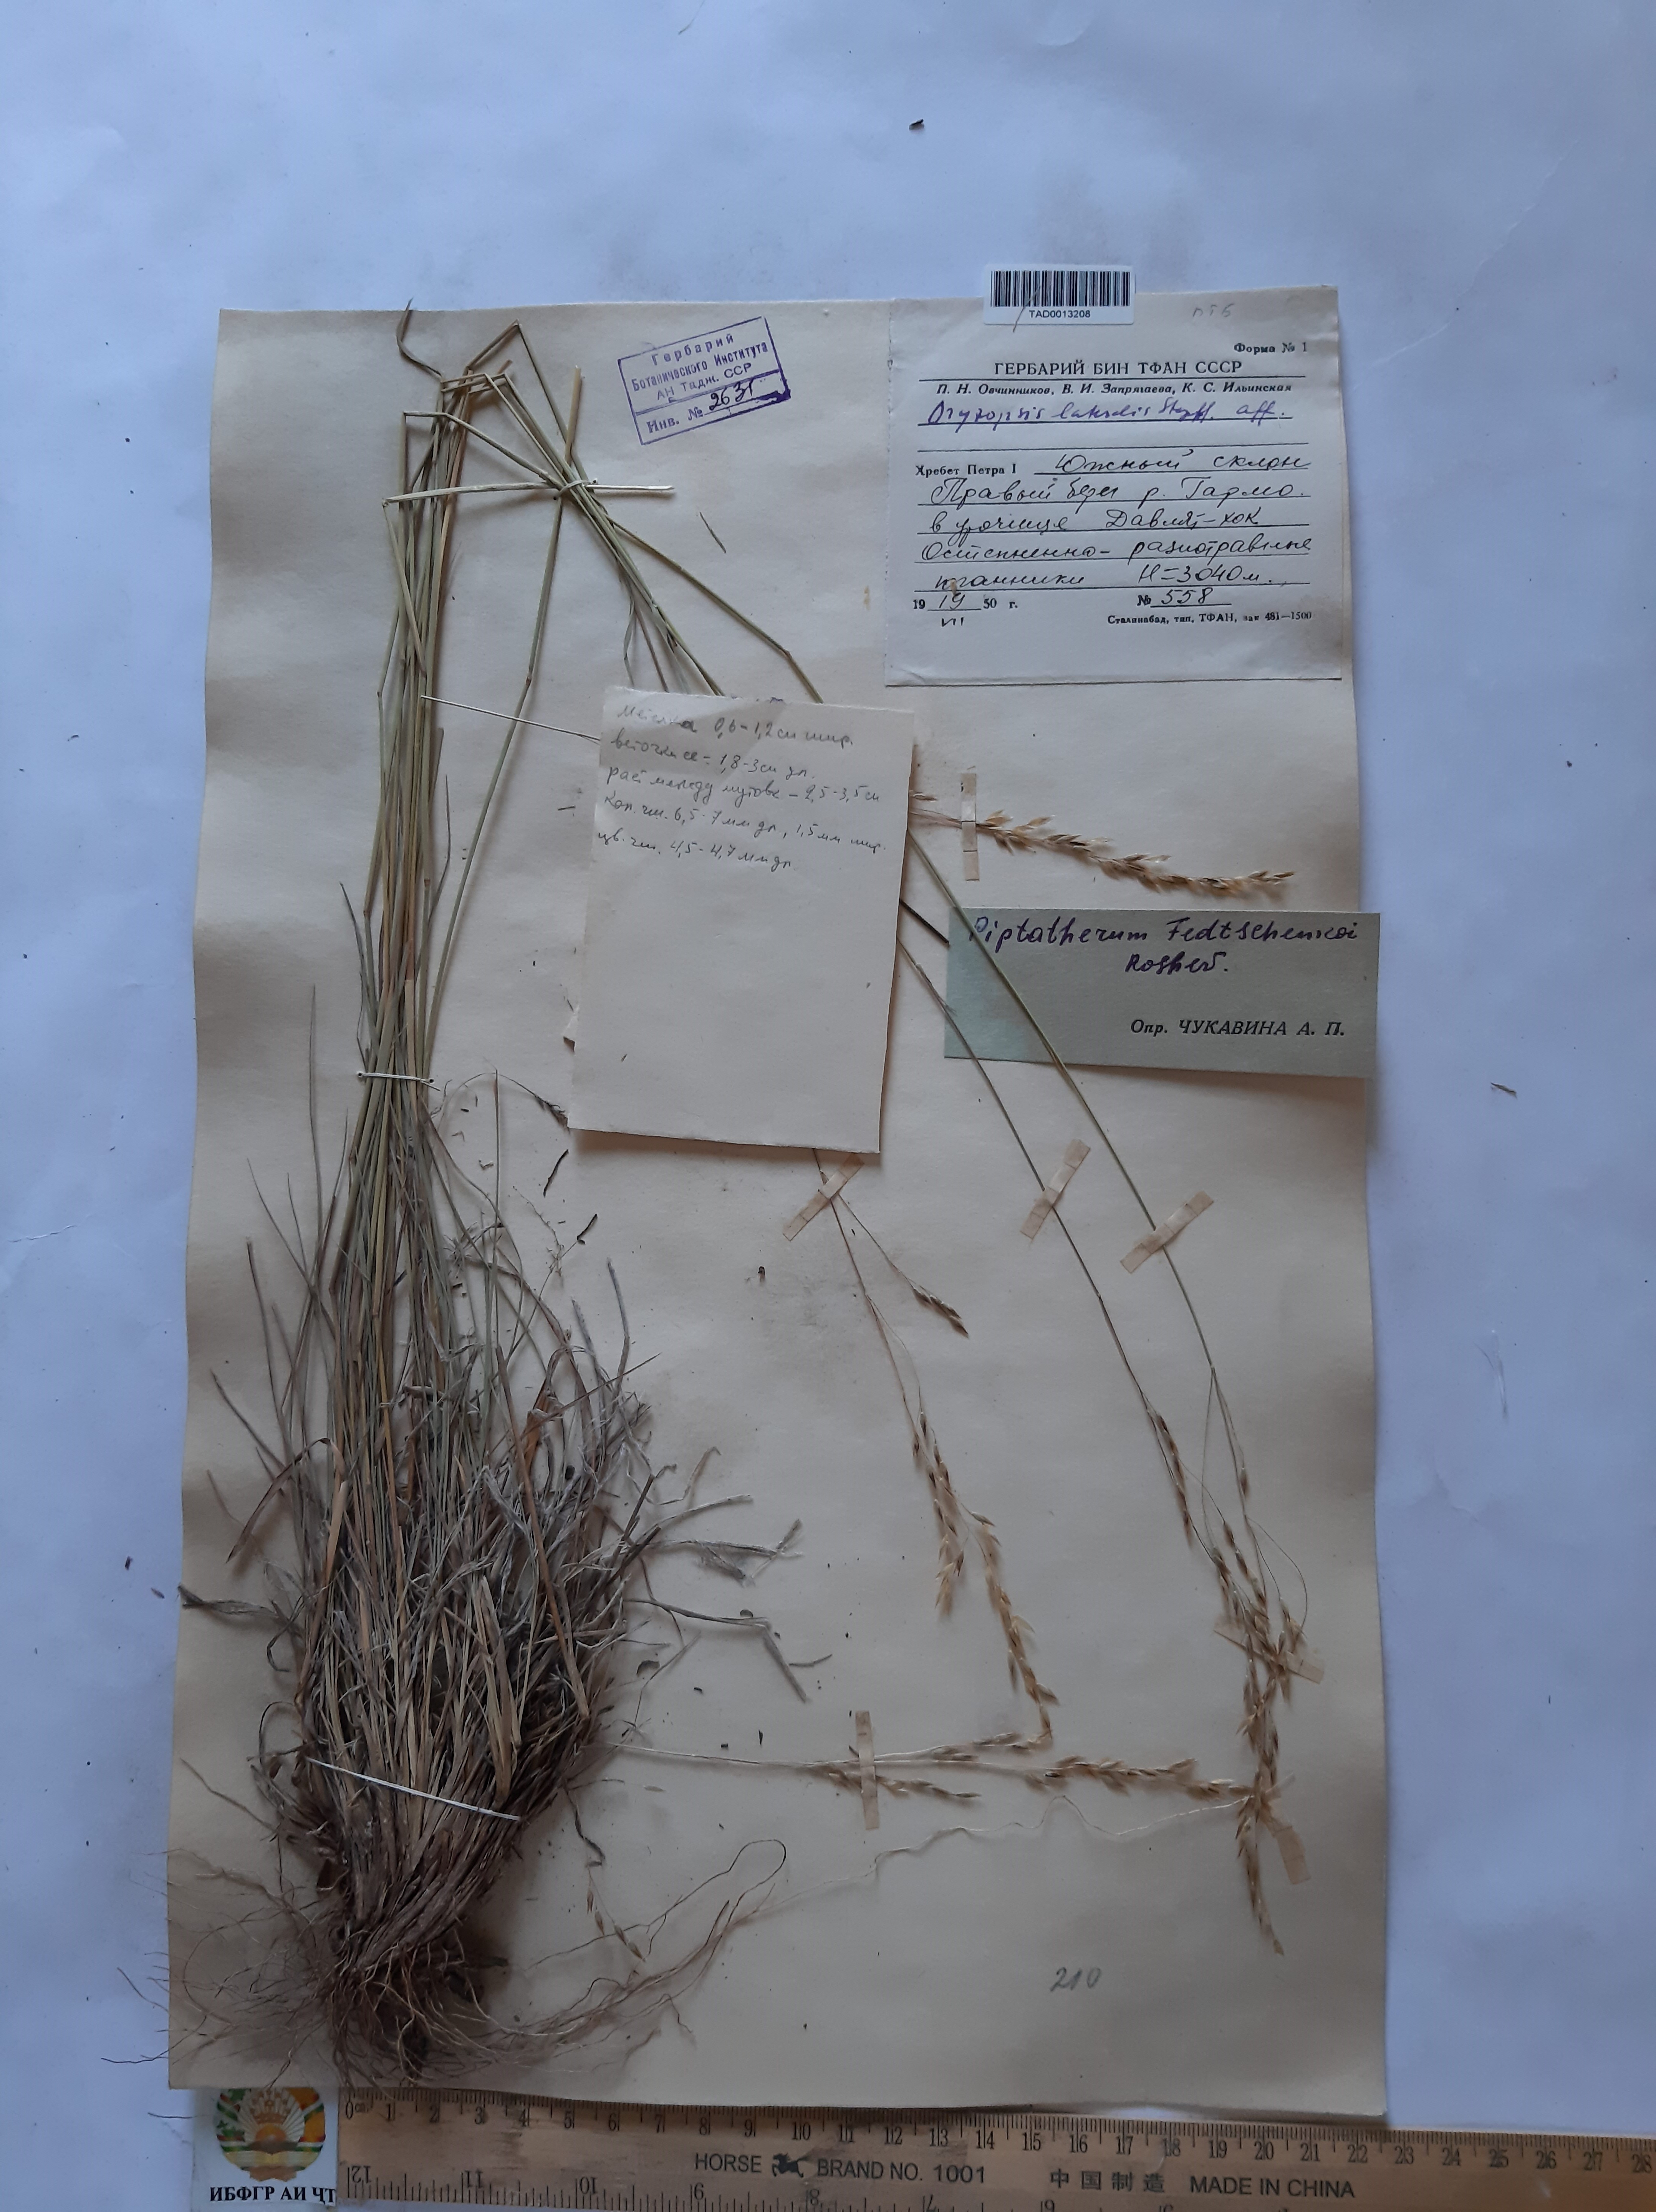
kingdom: Plantae
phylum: Tracheophyta
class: Liliopsida
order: Poales
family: Poaceae
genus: Piptatherum
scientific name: Piptatherum sogdianum
